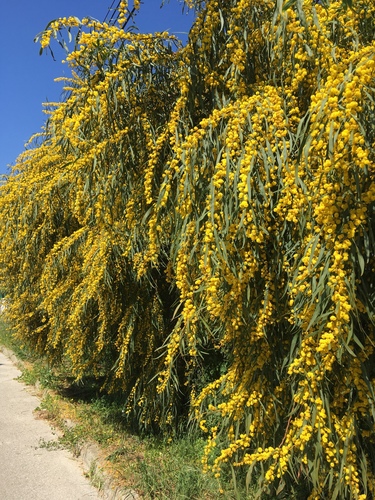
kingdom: Plantae
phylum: Tracheophyta
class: Magnoliopsida
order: Fabales
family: Fabaceae
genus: Acacia
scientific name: Acacia saligna
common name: Orange wattle
